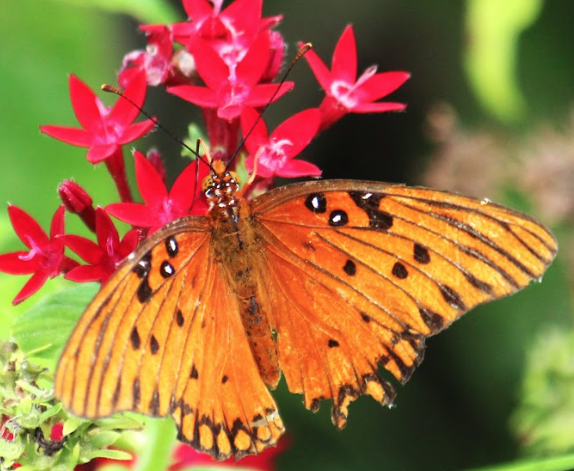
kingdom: Animalia
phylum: Arthropoda
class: Insecta
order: Lepidoptera
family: Nymphalidae
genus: Dione
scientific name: Dione vanillae
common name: Gulf Fritillary
